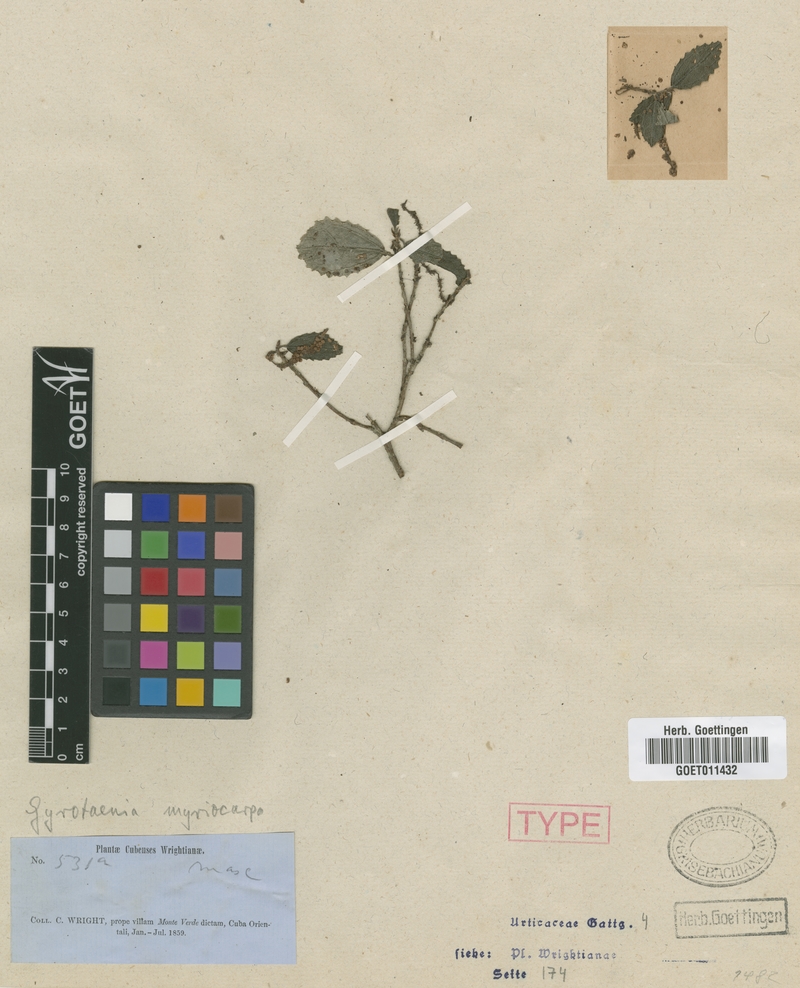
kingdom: Plantae
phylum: Tracheophyta
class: Magnoliopsida
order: Rosales
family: Urticaceae
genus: Gyrotaenia
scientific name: Gyrotaenia myriocarpa
